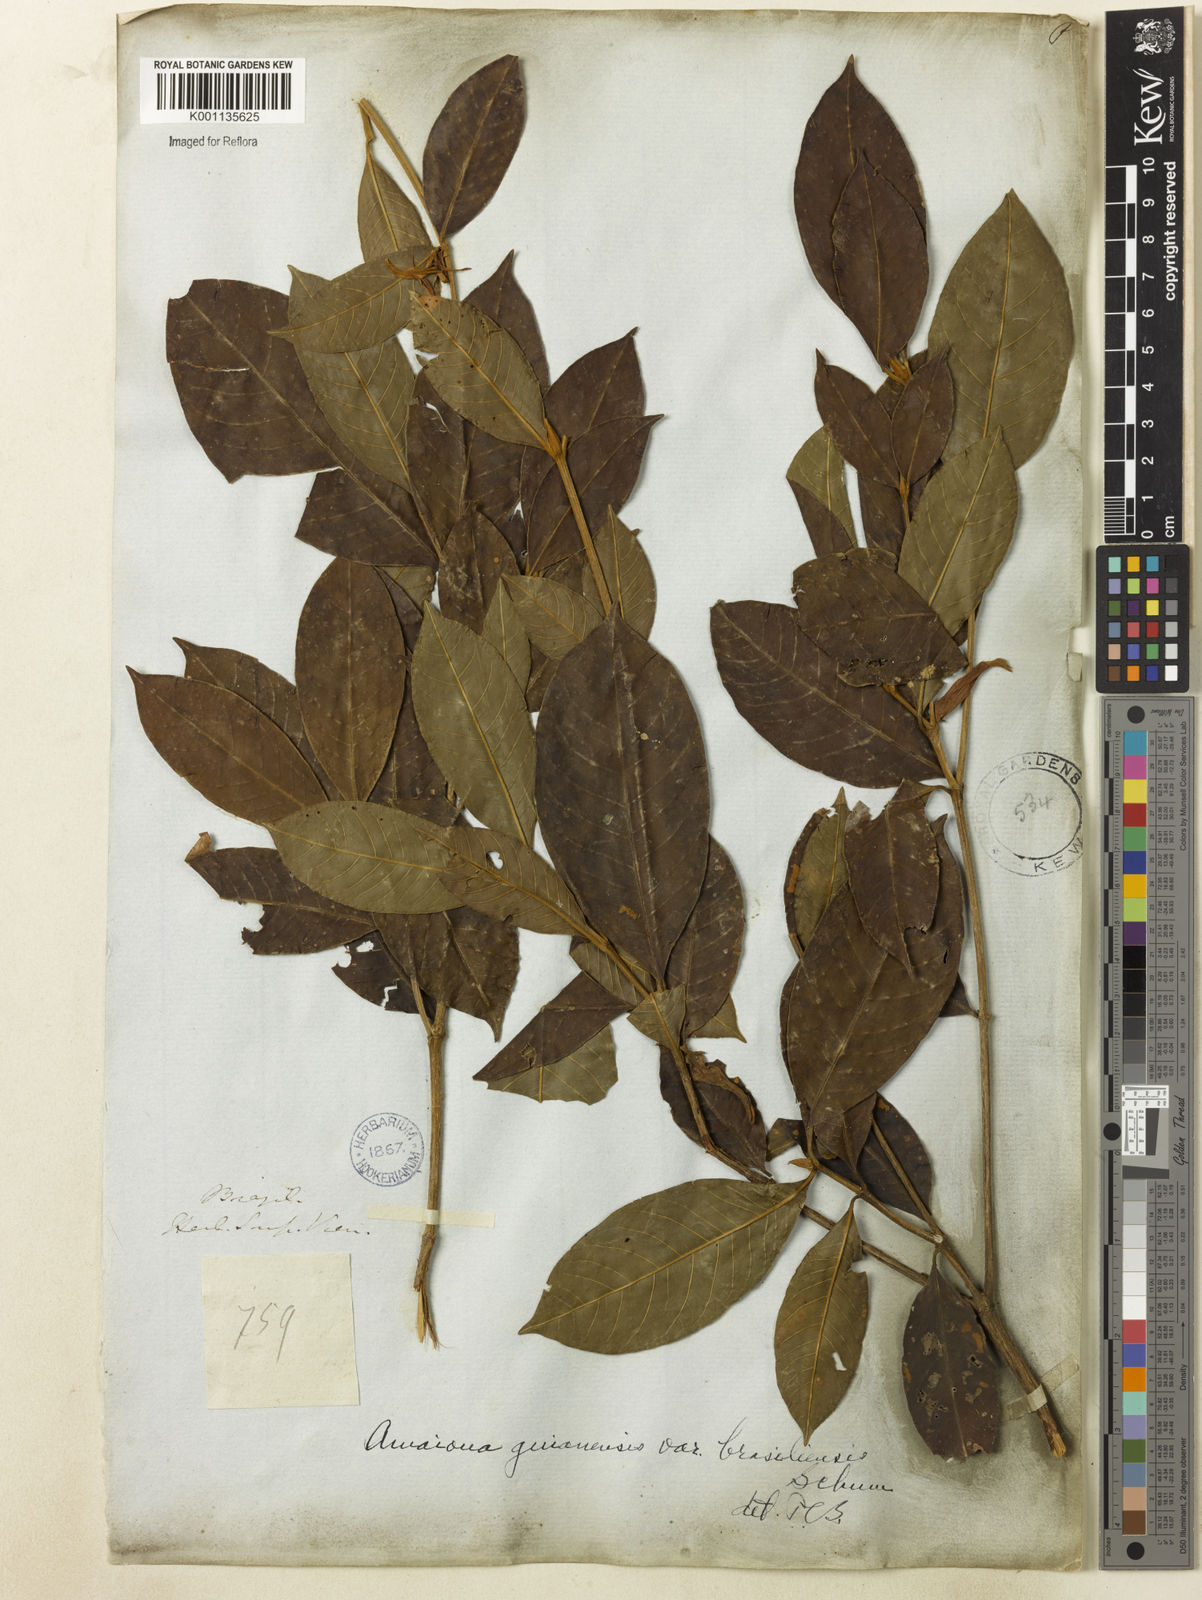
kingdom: Plantae
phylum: Tracheophyta
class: Magnoliopsida
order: Gentianales
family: Rubiaceae
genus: Amaioua
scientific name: Amaioua intermedia
